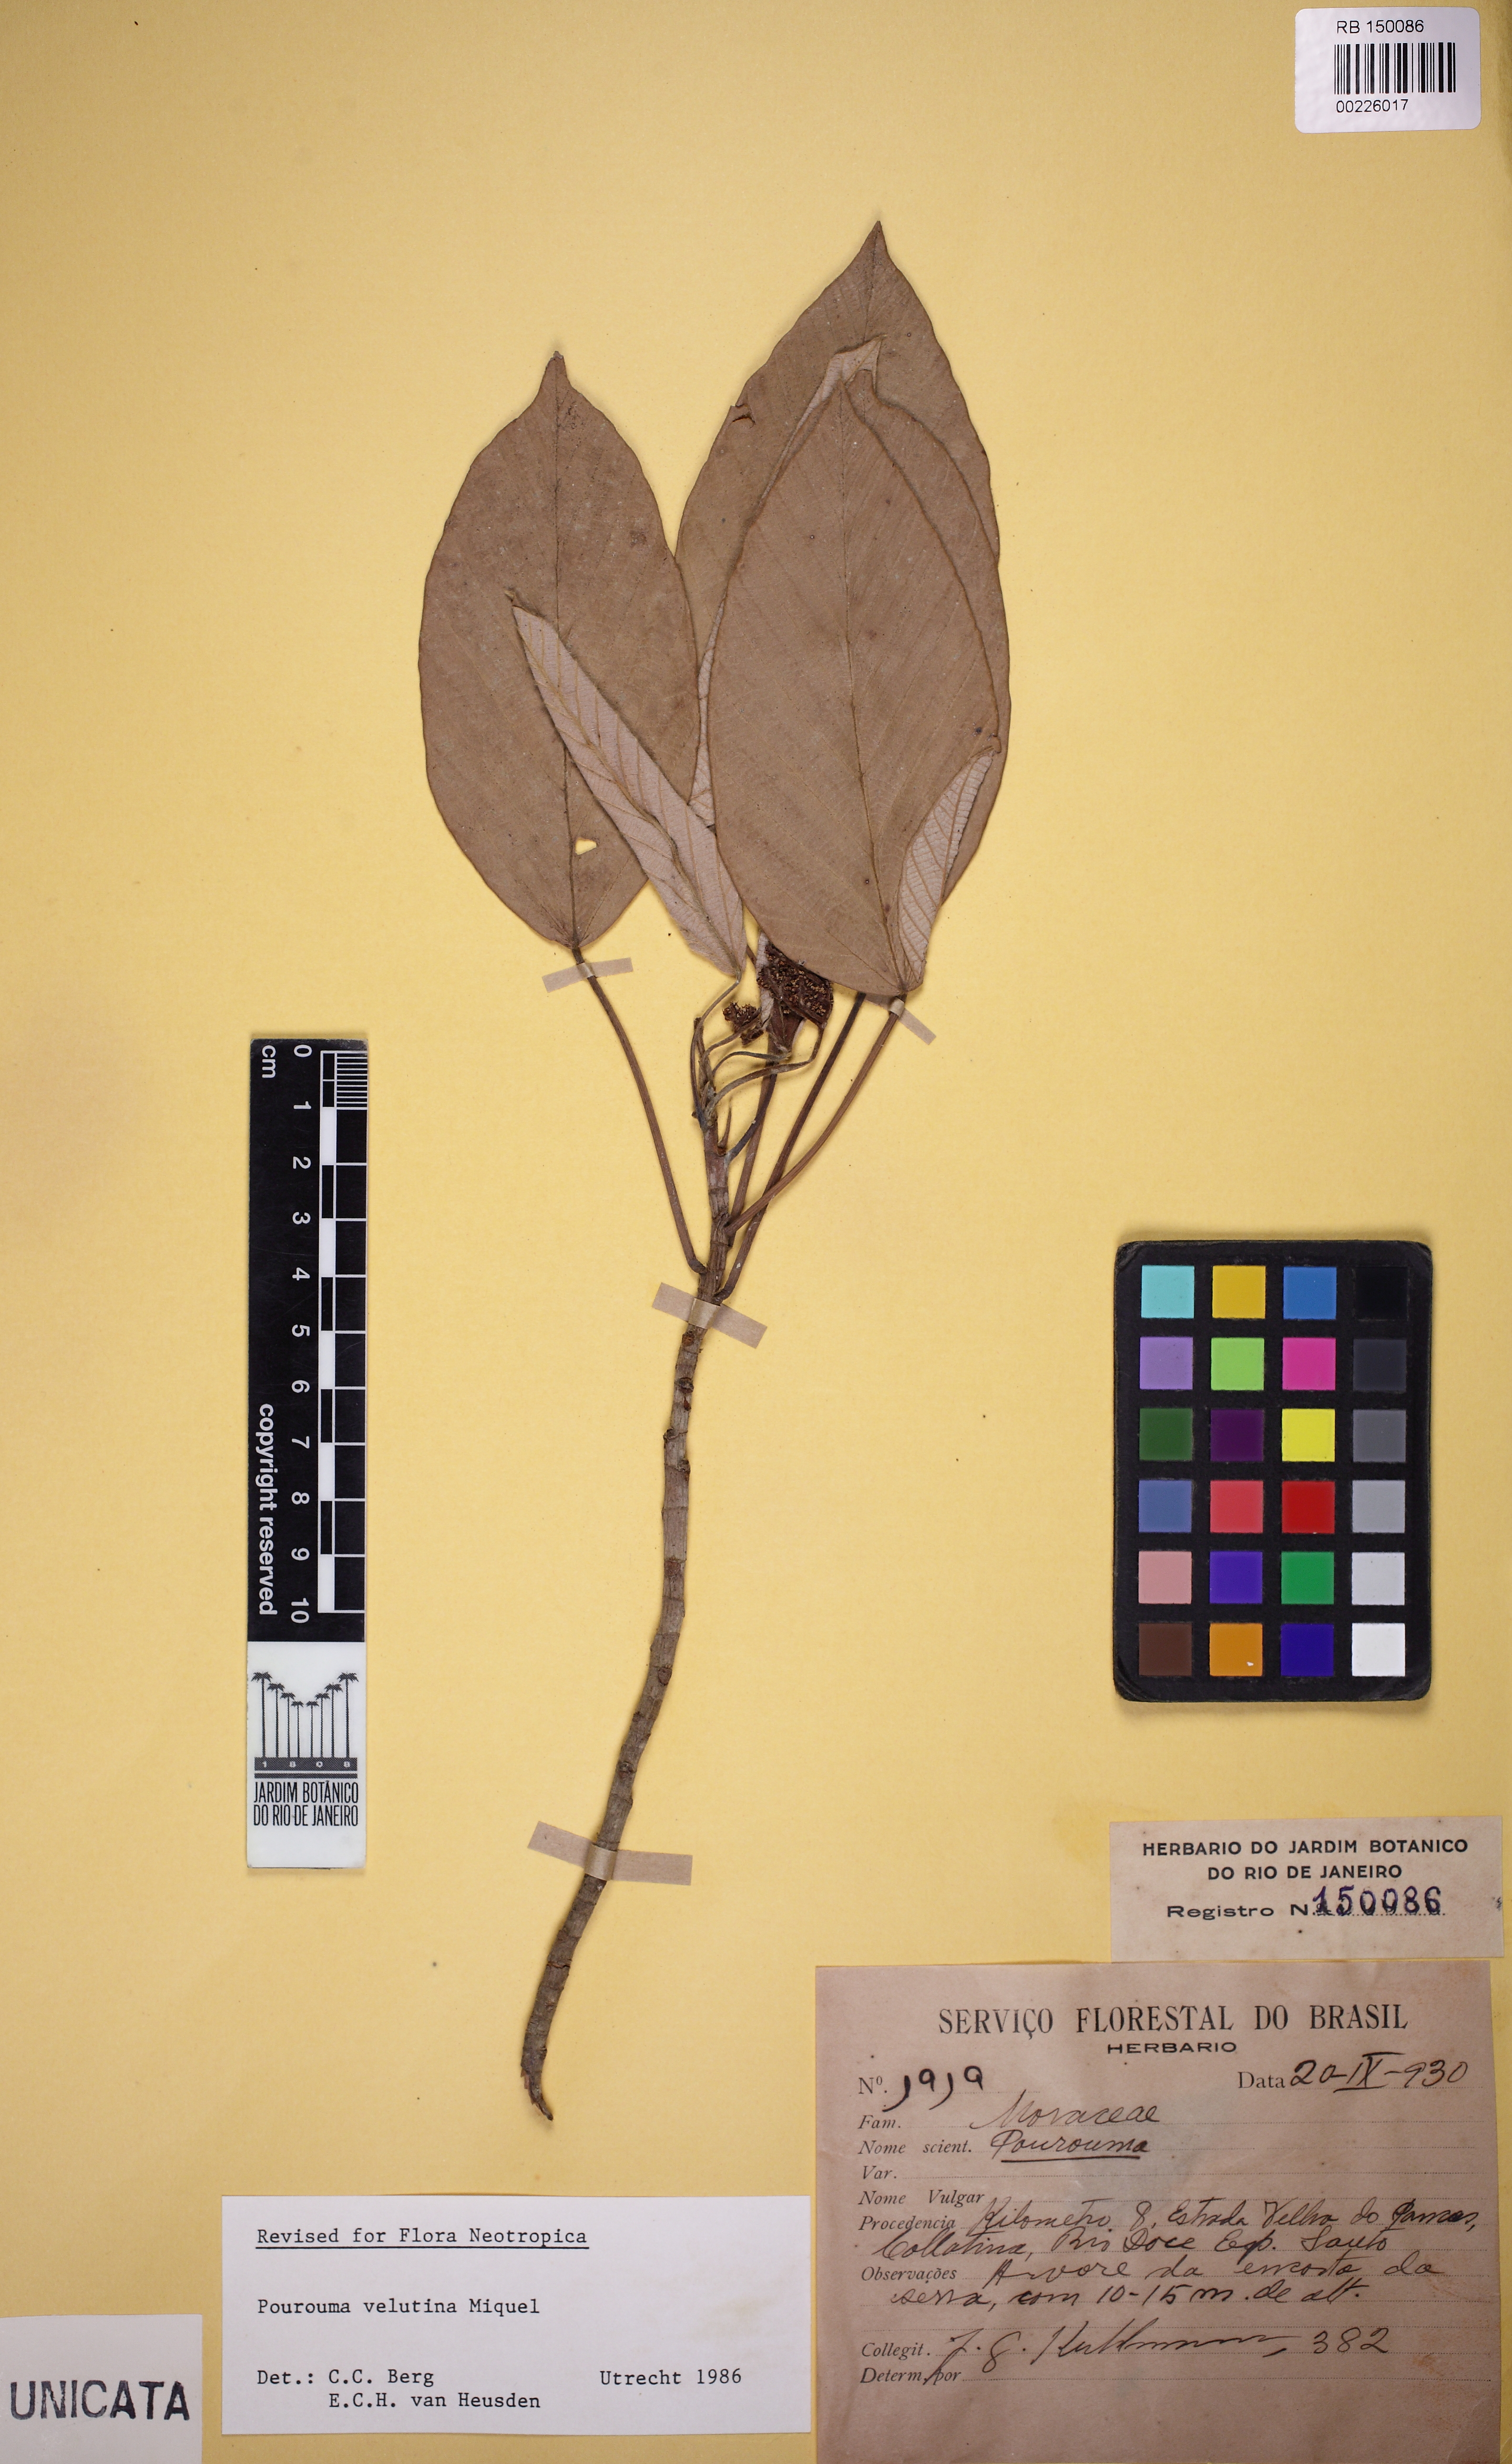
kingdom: Plantae
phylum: Tracheophyta
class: Magnoliopsida
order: Rosales
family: Urticaceae
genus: Pourouma
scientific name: Pourouma velutina
